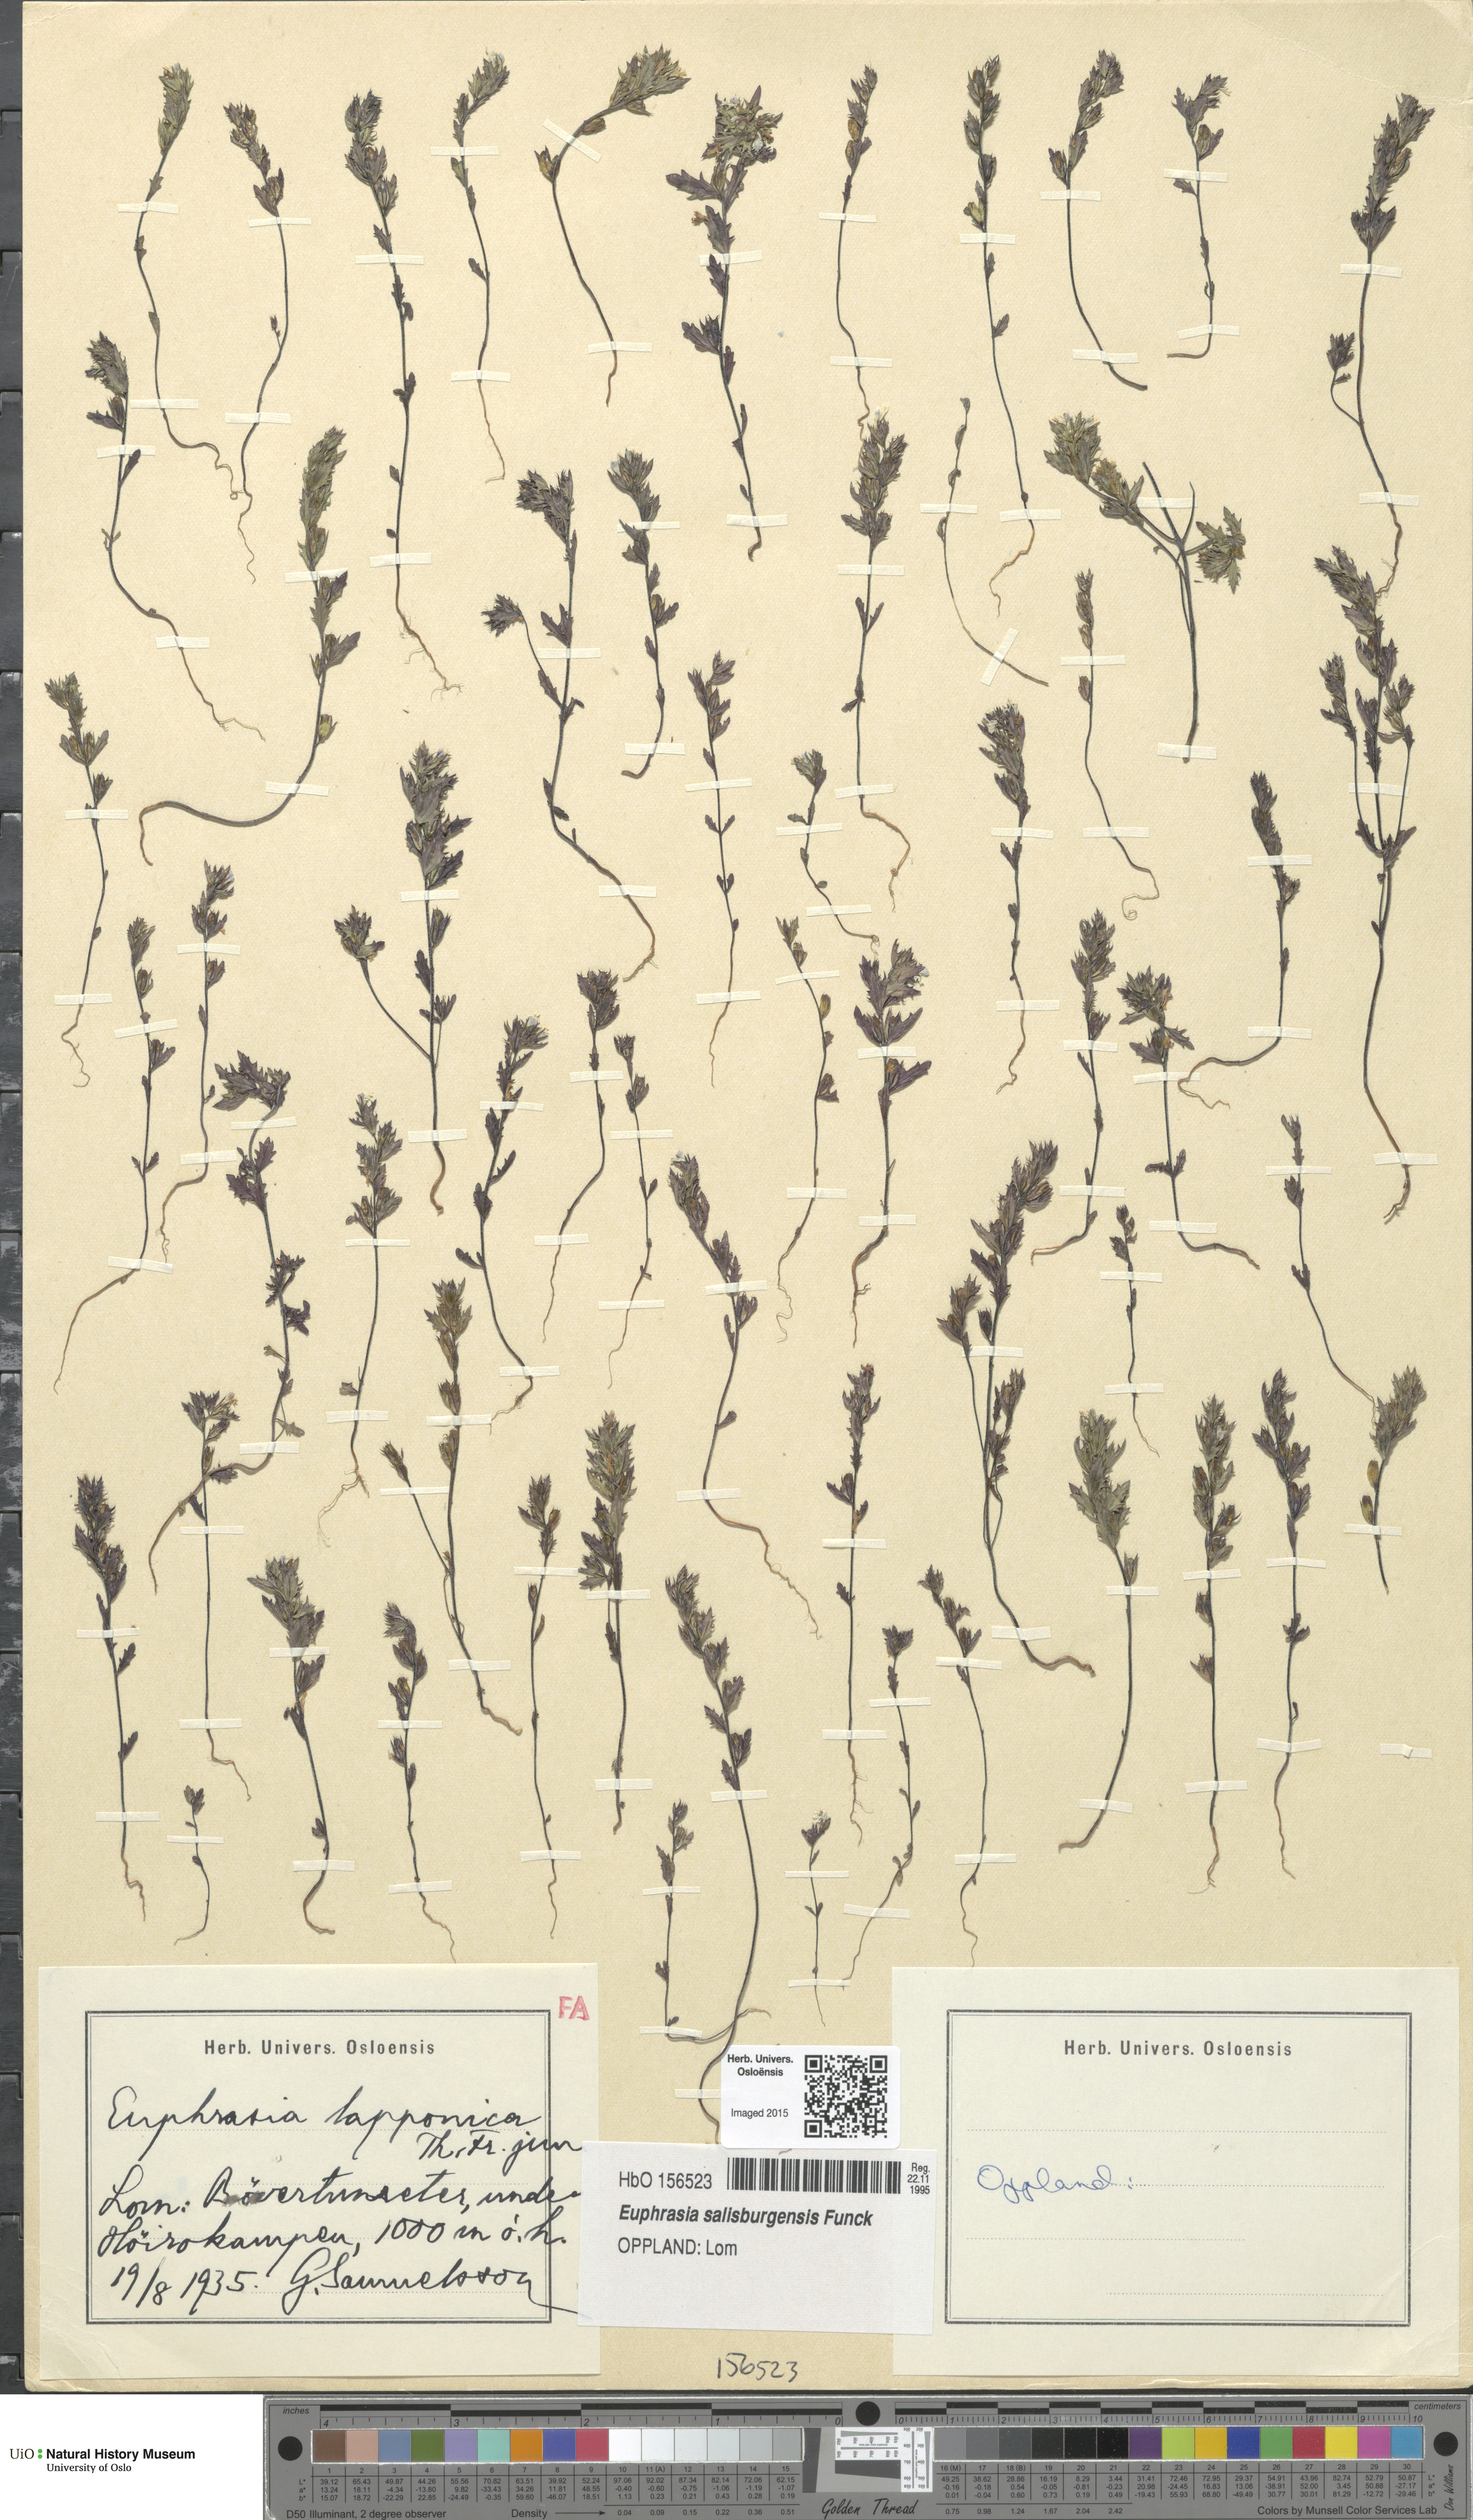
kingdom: Plantae
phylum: Tracheophyta
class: Magnoliopsida
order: Lamiales
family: Orobanchaceae
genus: Euphrasia
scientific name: Euphrasia salisburgensis
